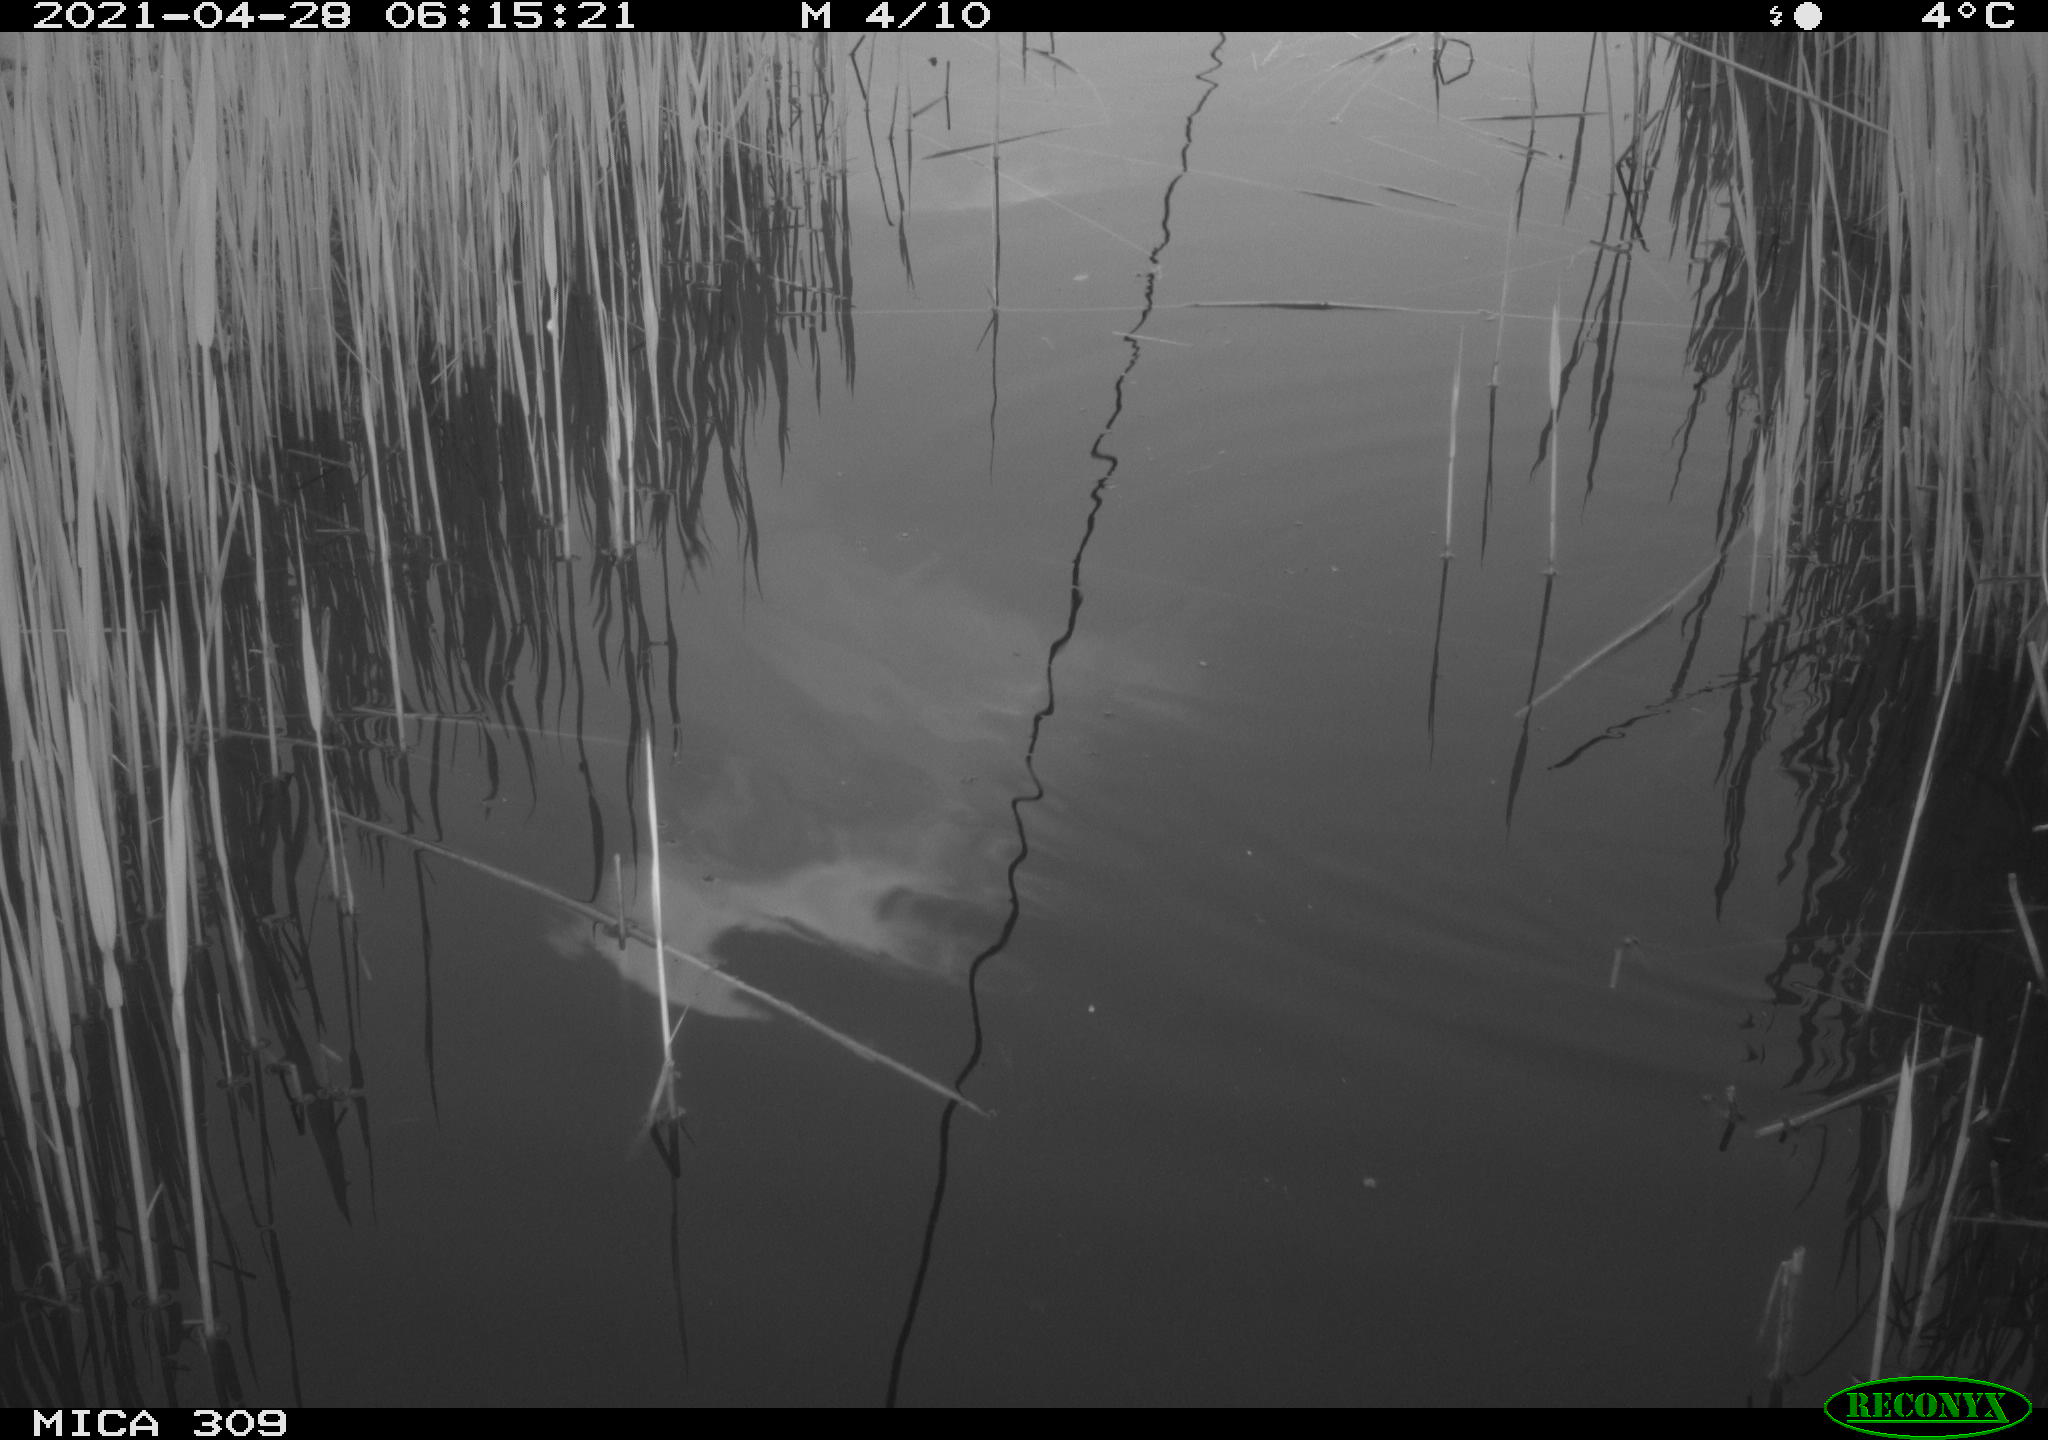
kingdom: Animalia
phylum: Chordata
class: Aves
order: Gruiformes
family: Rallidae
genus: Gallinula
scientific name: Gallinula chloropus
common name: Common moorhen
